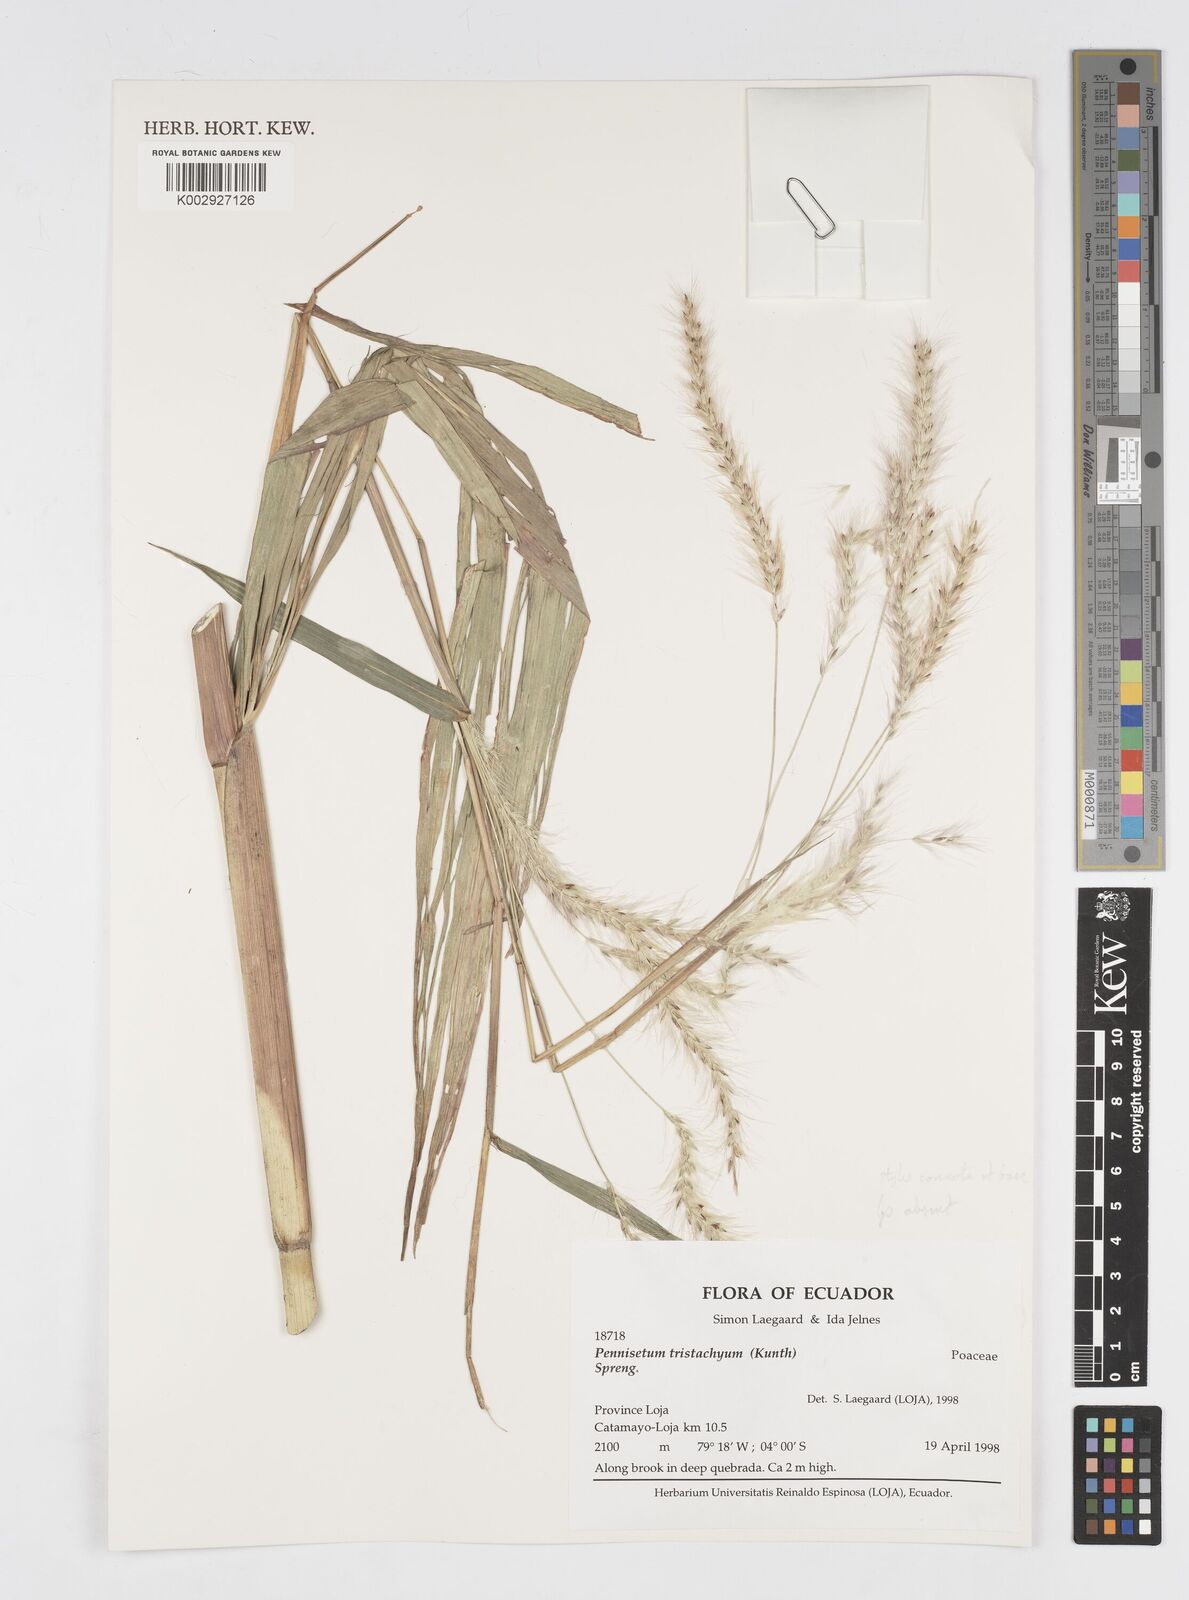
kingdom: Plantae
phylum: Tracheophyta
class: Liliopsida
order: Poales
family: Poaceae
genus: Cenchrus
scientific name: Cenchrus tristachyus
